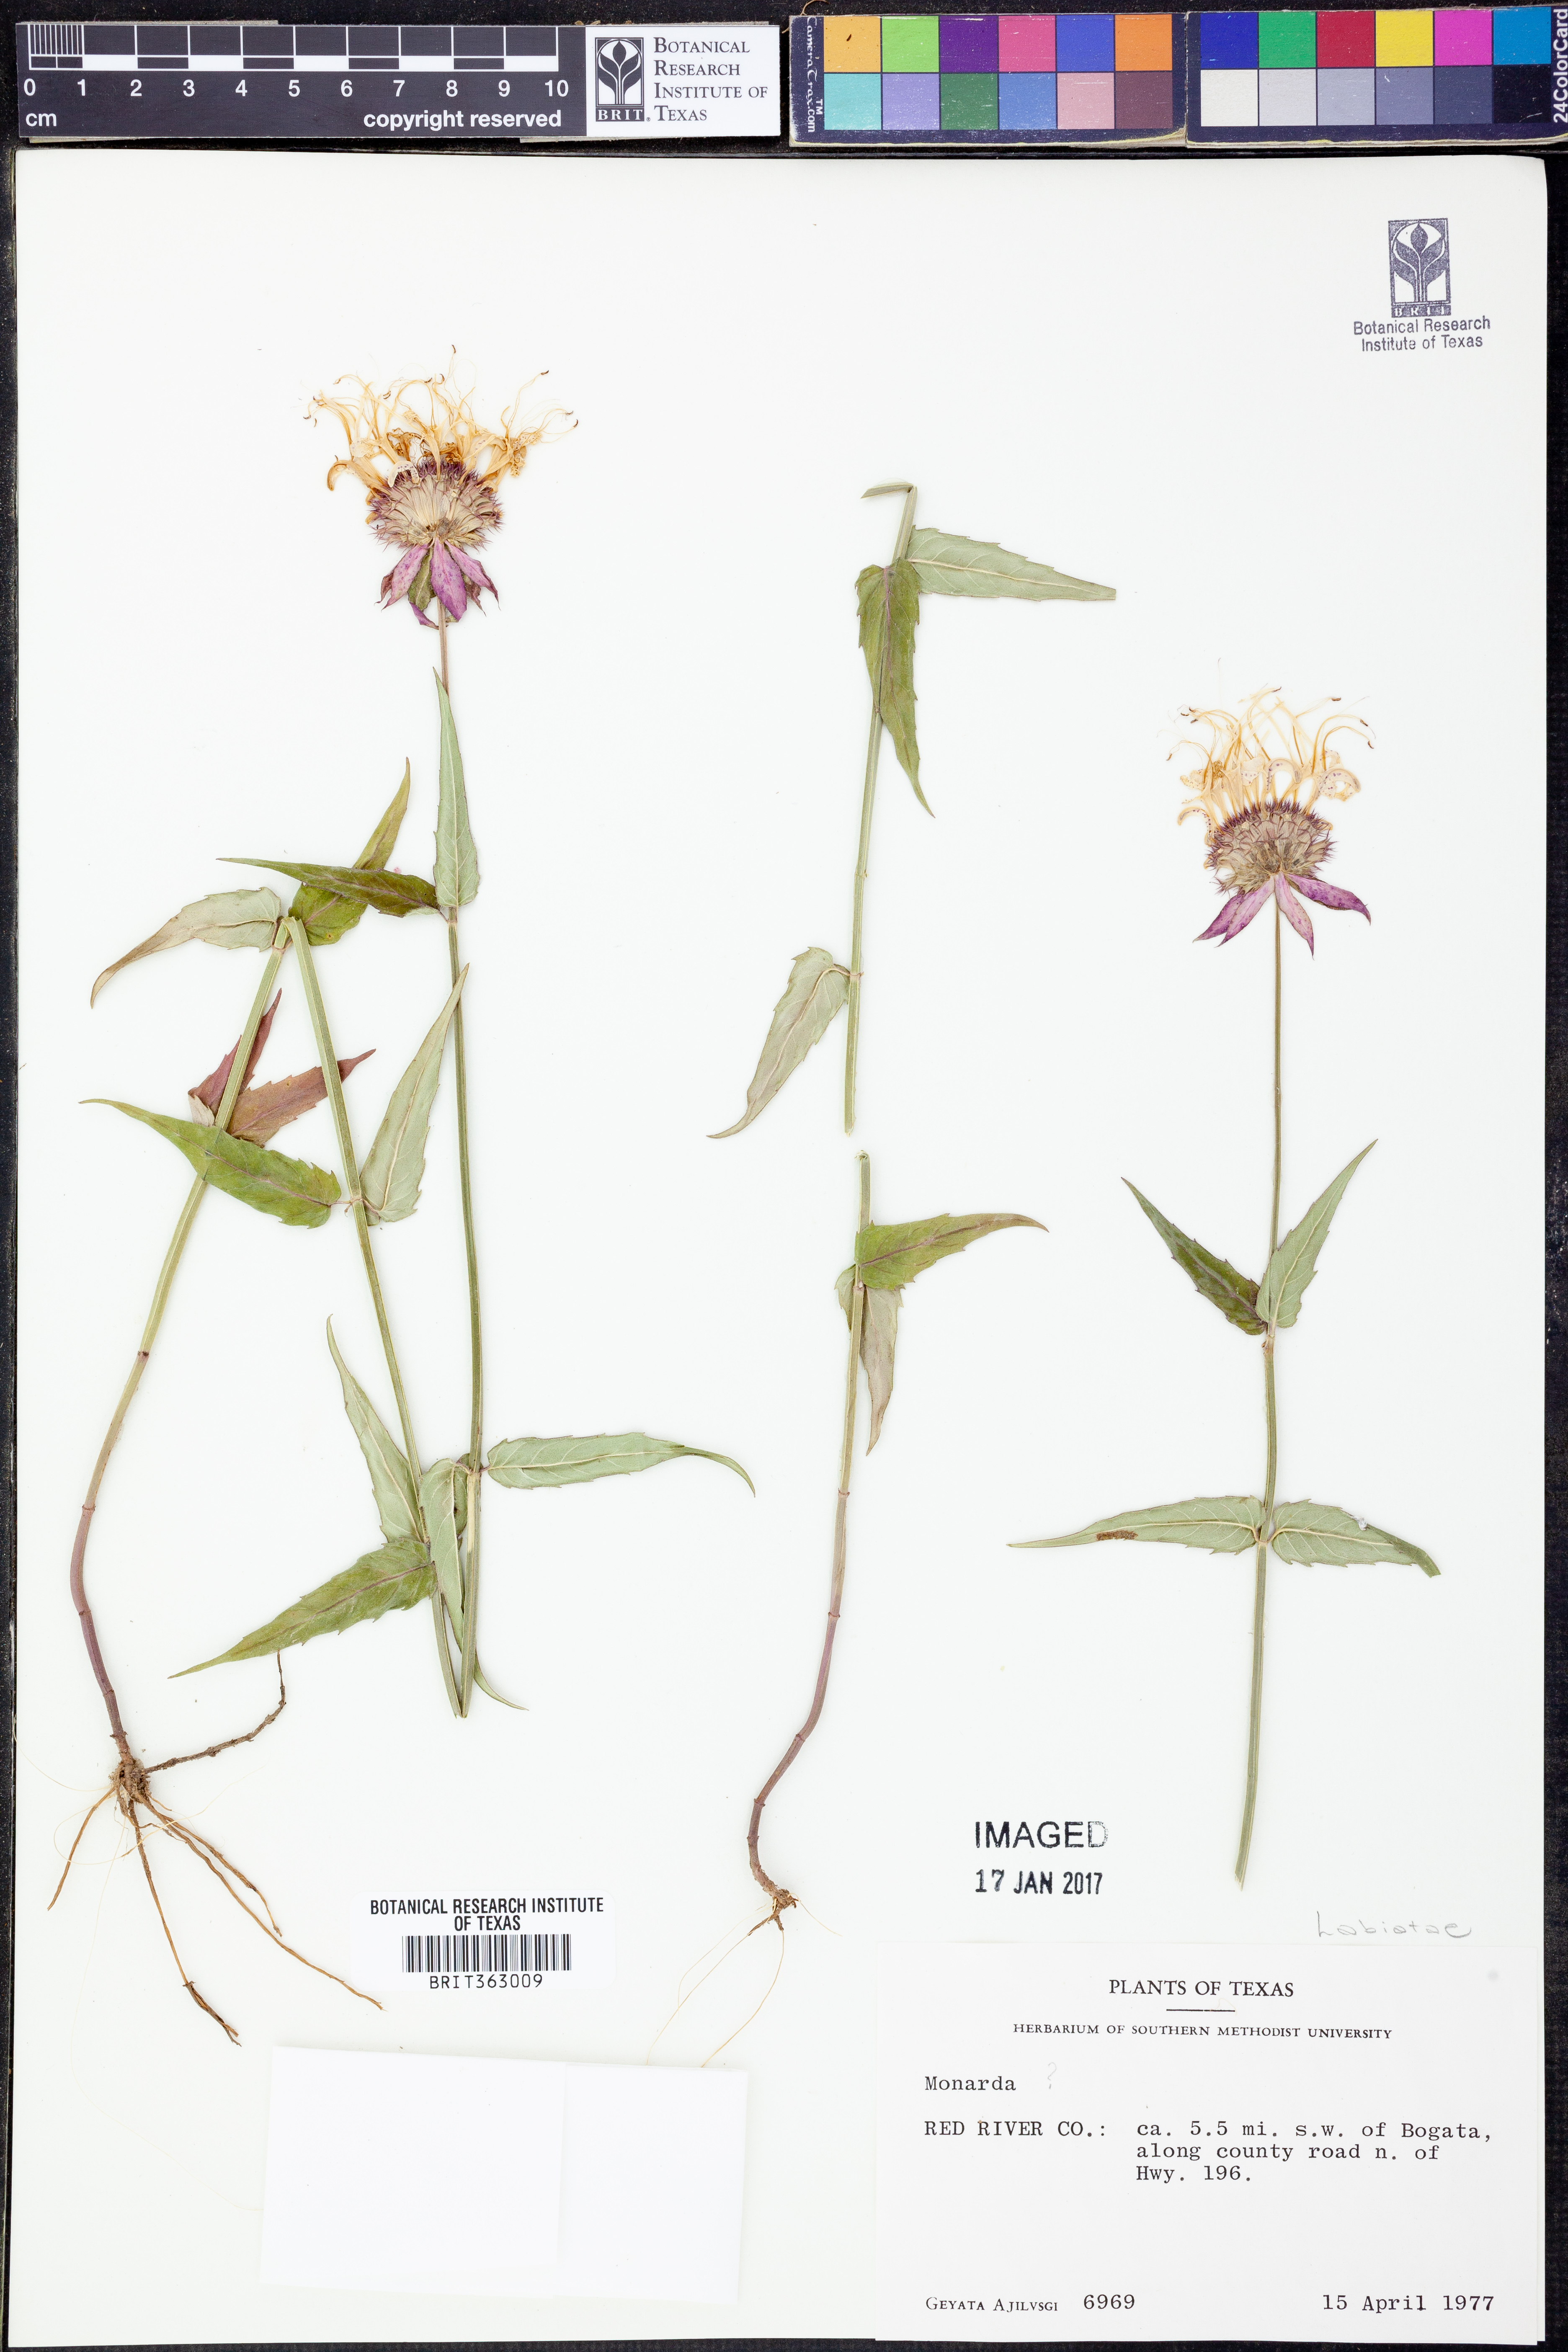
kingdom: Plantae
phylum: Tracheophyta
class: Magnoliopsida
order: Lamiales
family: Lamiaceae
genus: Monarda
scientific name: Monarda
